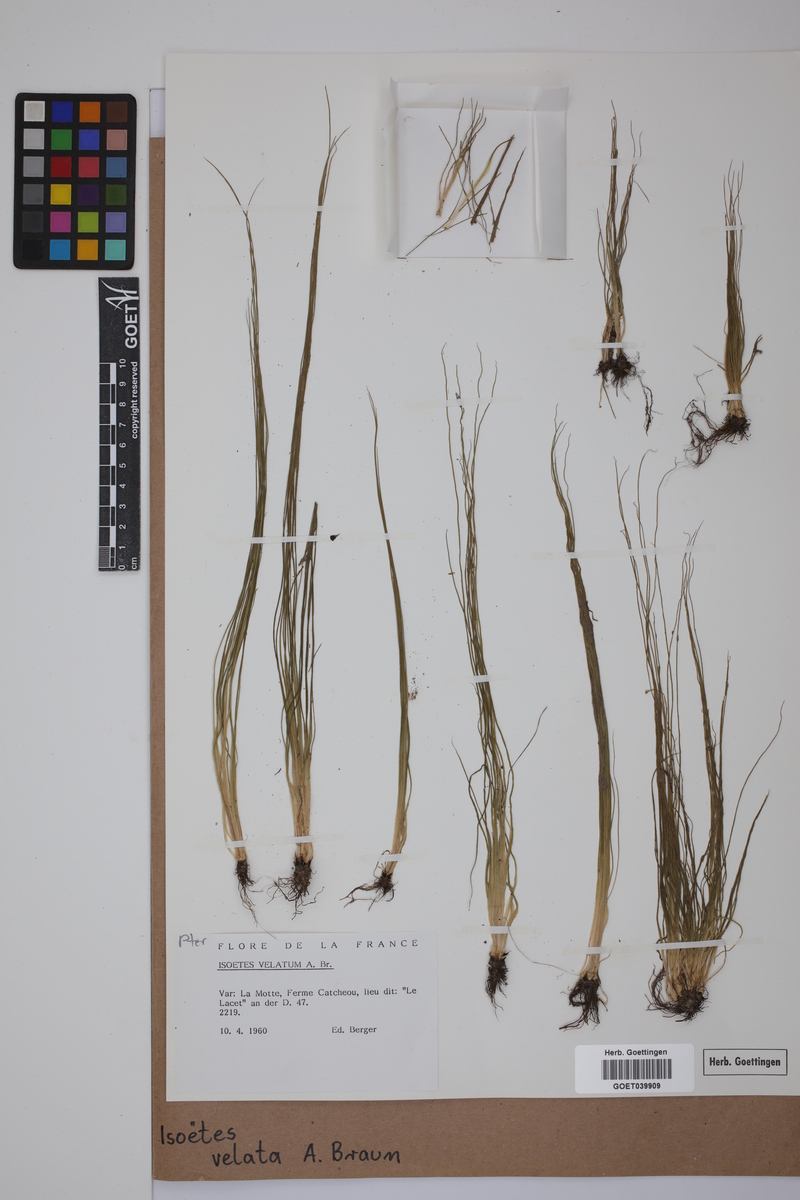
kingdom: Plantae
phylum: Tracheophyta
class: Lycopodiopsida
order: Isoetales
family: Isoetaceae
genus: Isoetes
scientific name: Isoetes longissima
